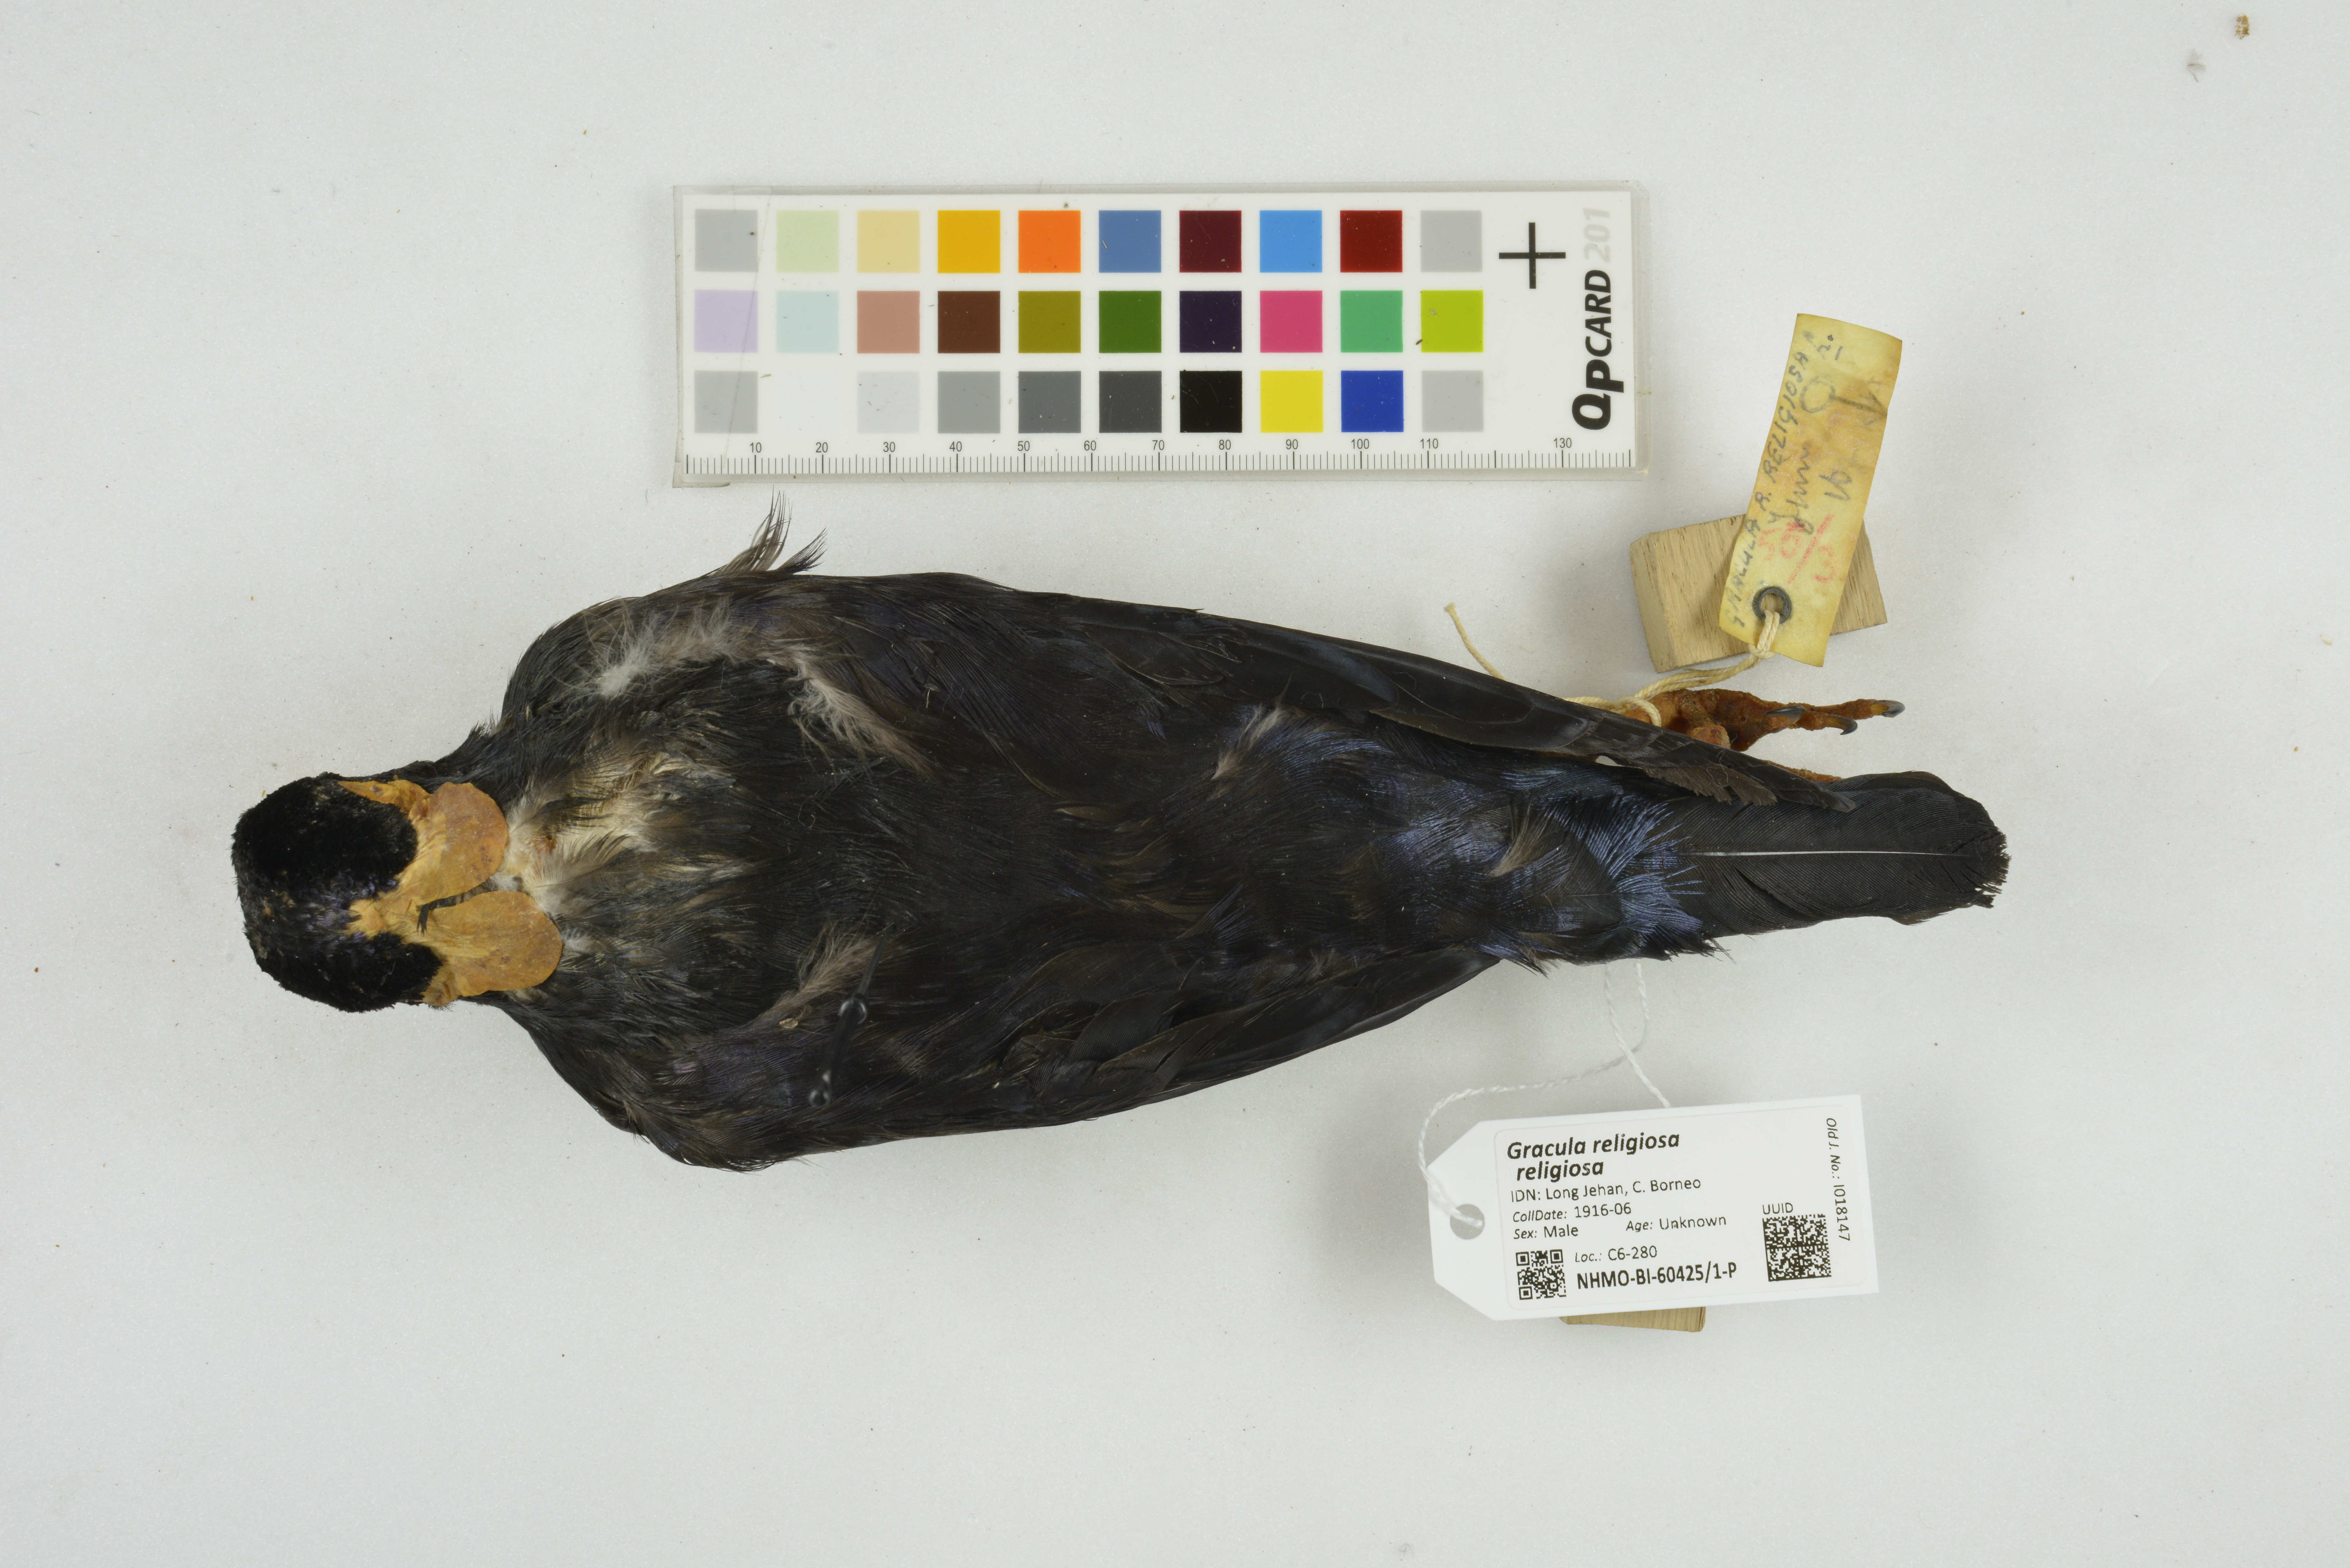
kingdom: Animalia
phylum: Chordata
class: Aves
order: Passeriformes
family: Sturnidae
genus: Gracula
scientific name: Gracula religiosa
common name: Common hill myna
